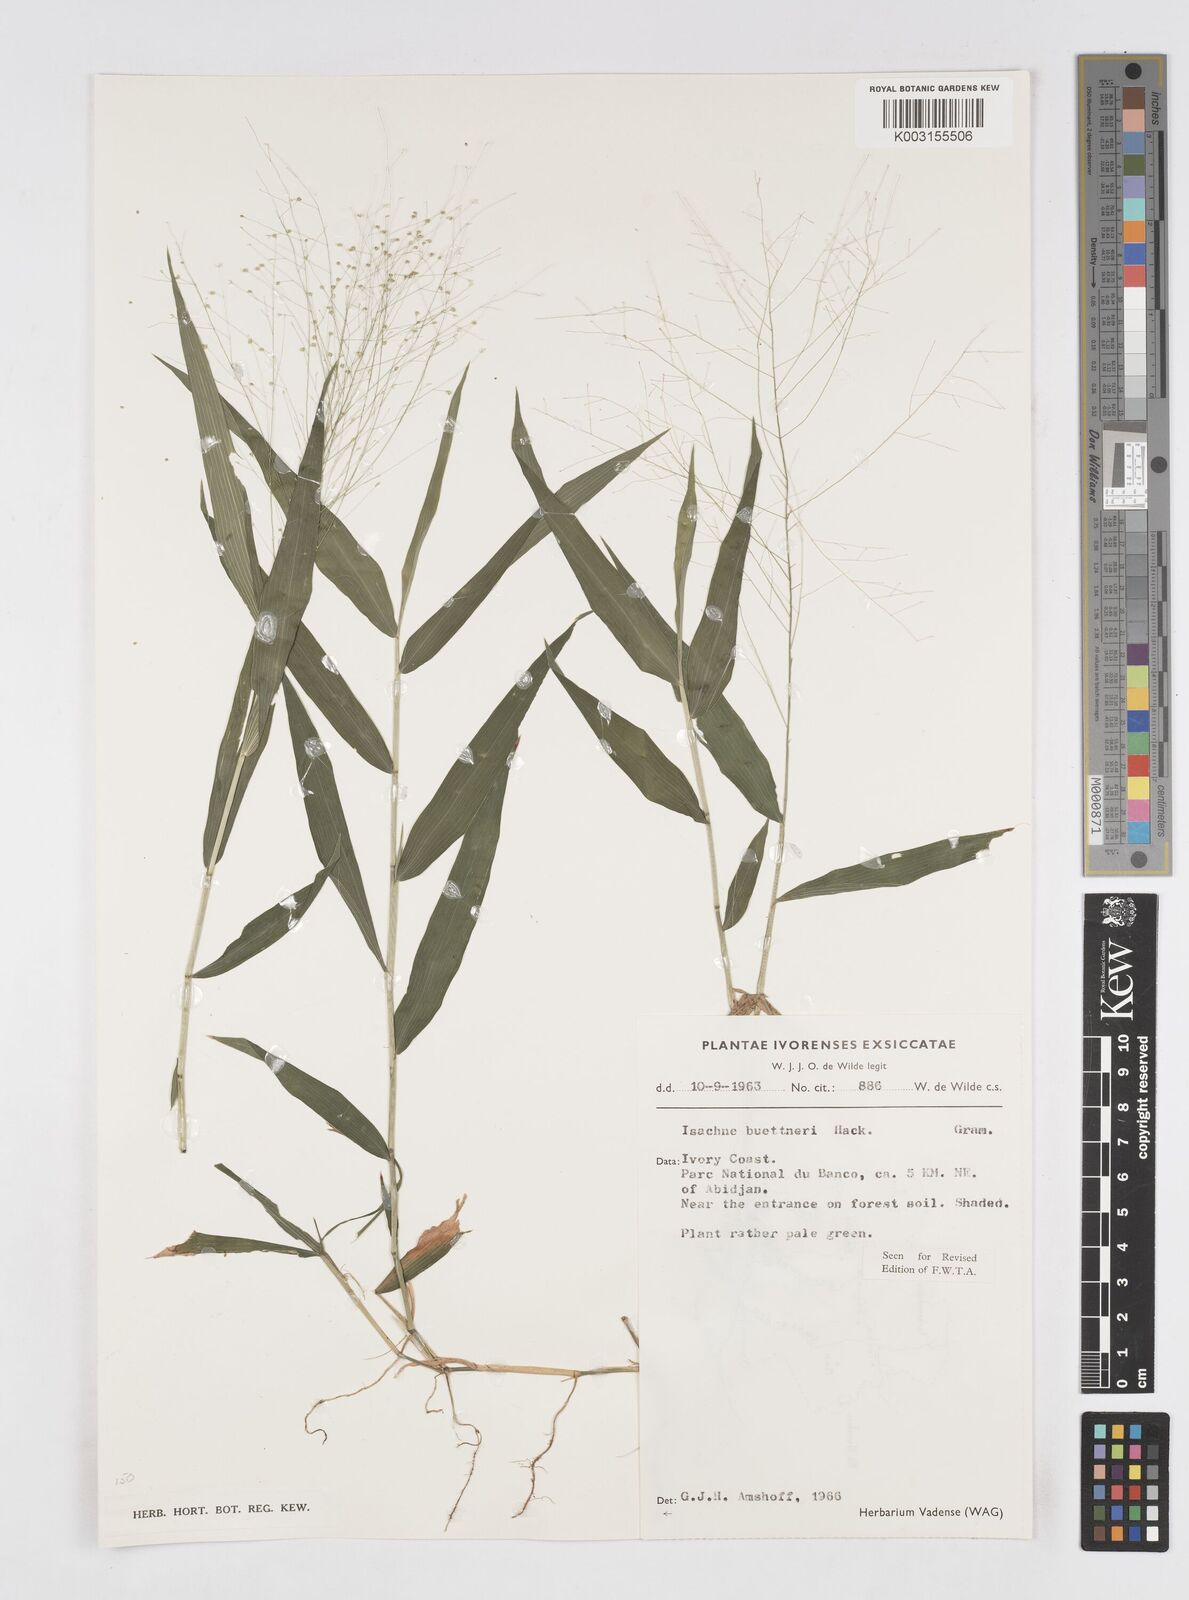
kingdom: Plantae
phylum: Tracheophyta
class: Liliopsida
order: Poales
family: Poaceae
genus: Isachne
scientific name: Isachne albens
